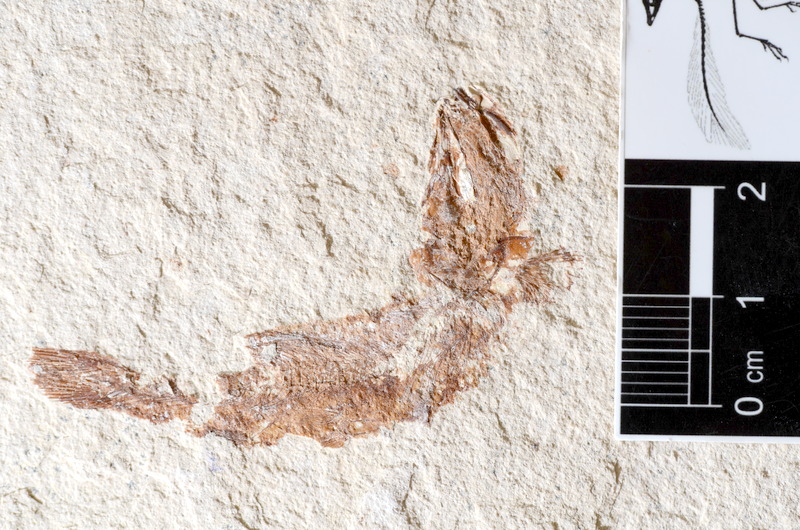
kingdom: Animalia
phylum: Chordata
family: Ascalaboidae
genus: Tharsis
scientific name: Tharsis dubius
